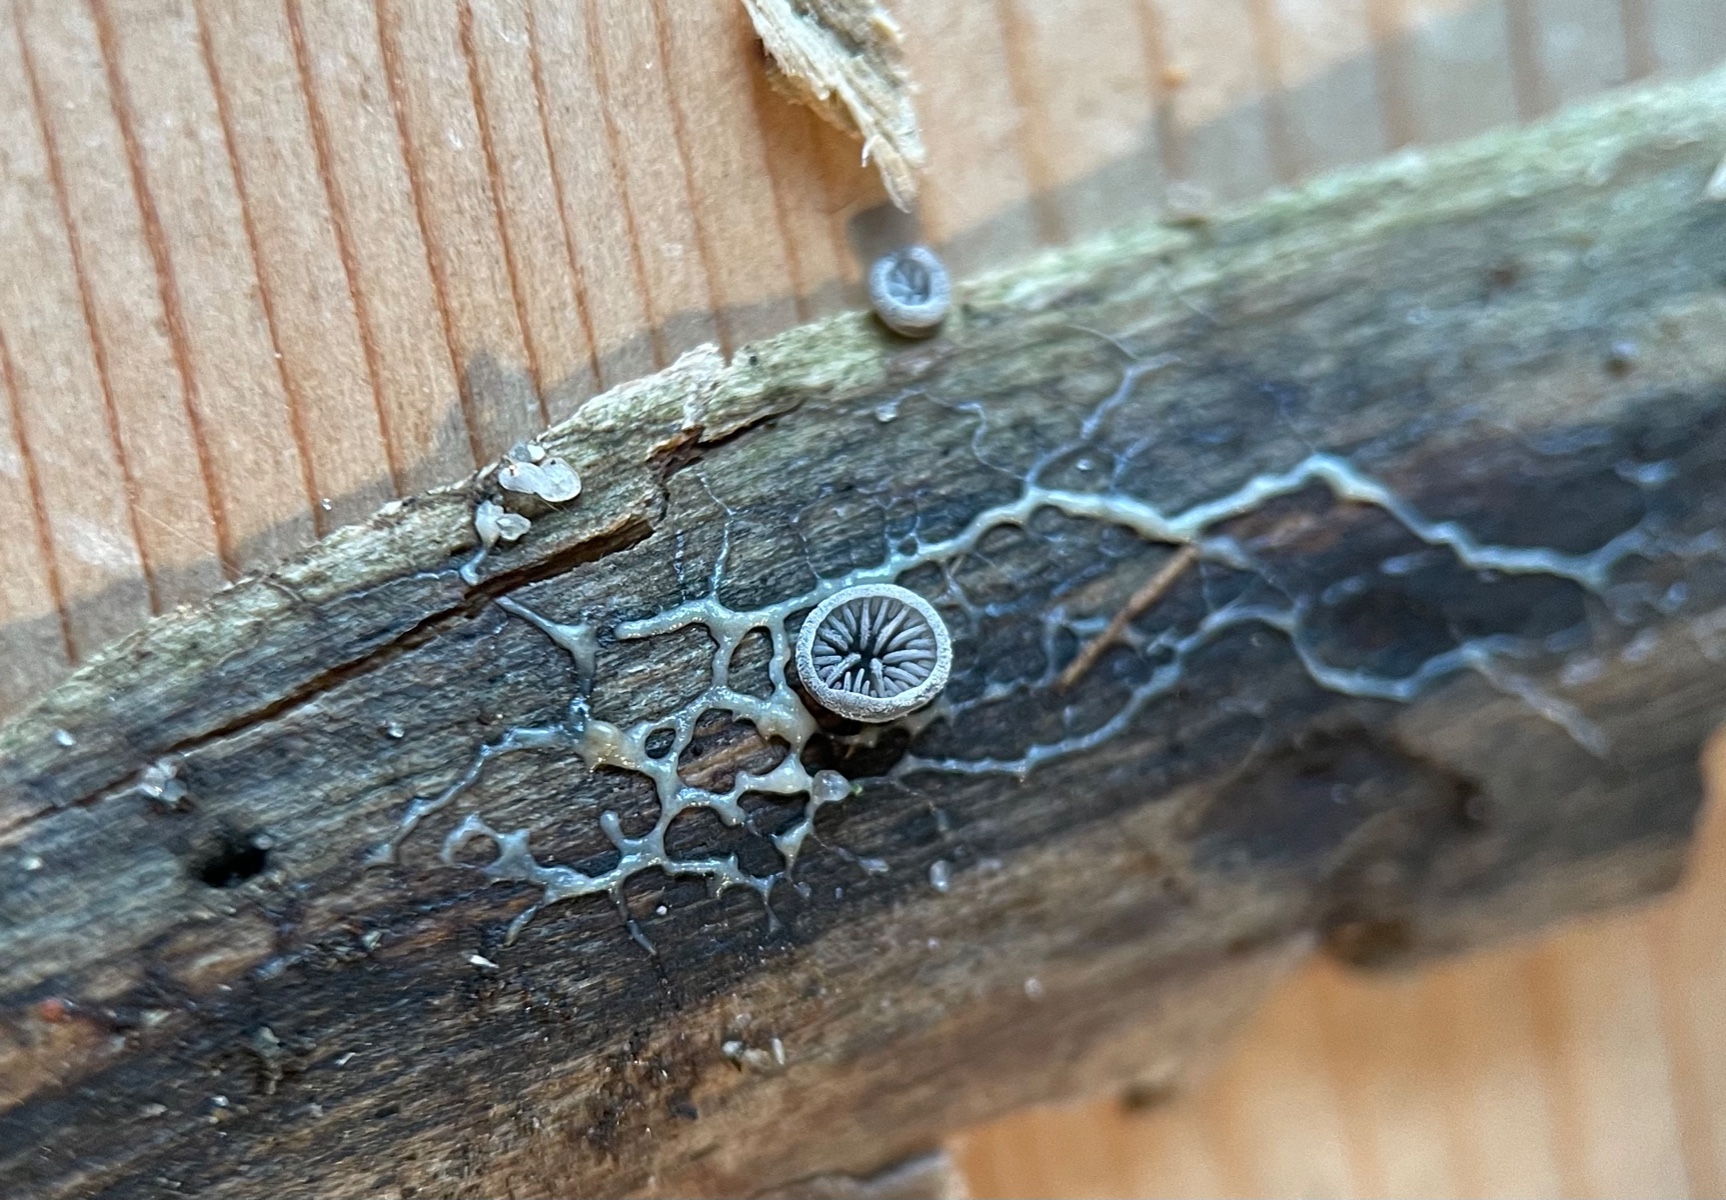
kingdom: Fungi
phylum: Basidiomycota
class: Agaricomycetes
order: Agaricales
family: Pleurotaceae
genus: Resupinatus
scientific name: Resupinatus applicatus
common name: lysfiltet barkhat
